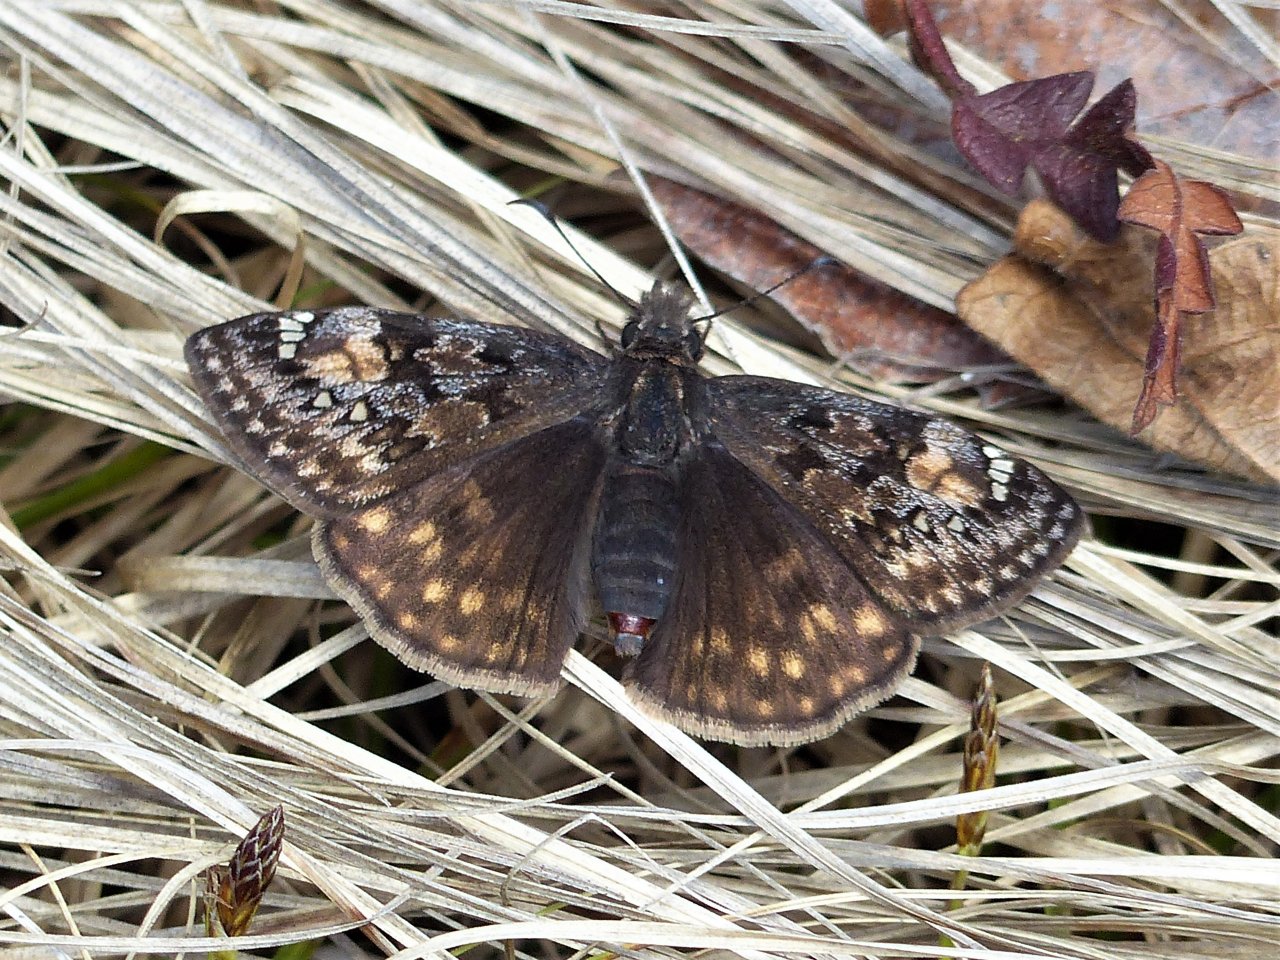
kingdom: Animalia
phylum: Arthropoda
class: Insecta
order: Lepidoptera
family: Hesperiidae
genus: Gesta
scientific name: Gesta
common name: Juvenal's Duskywing
